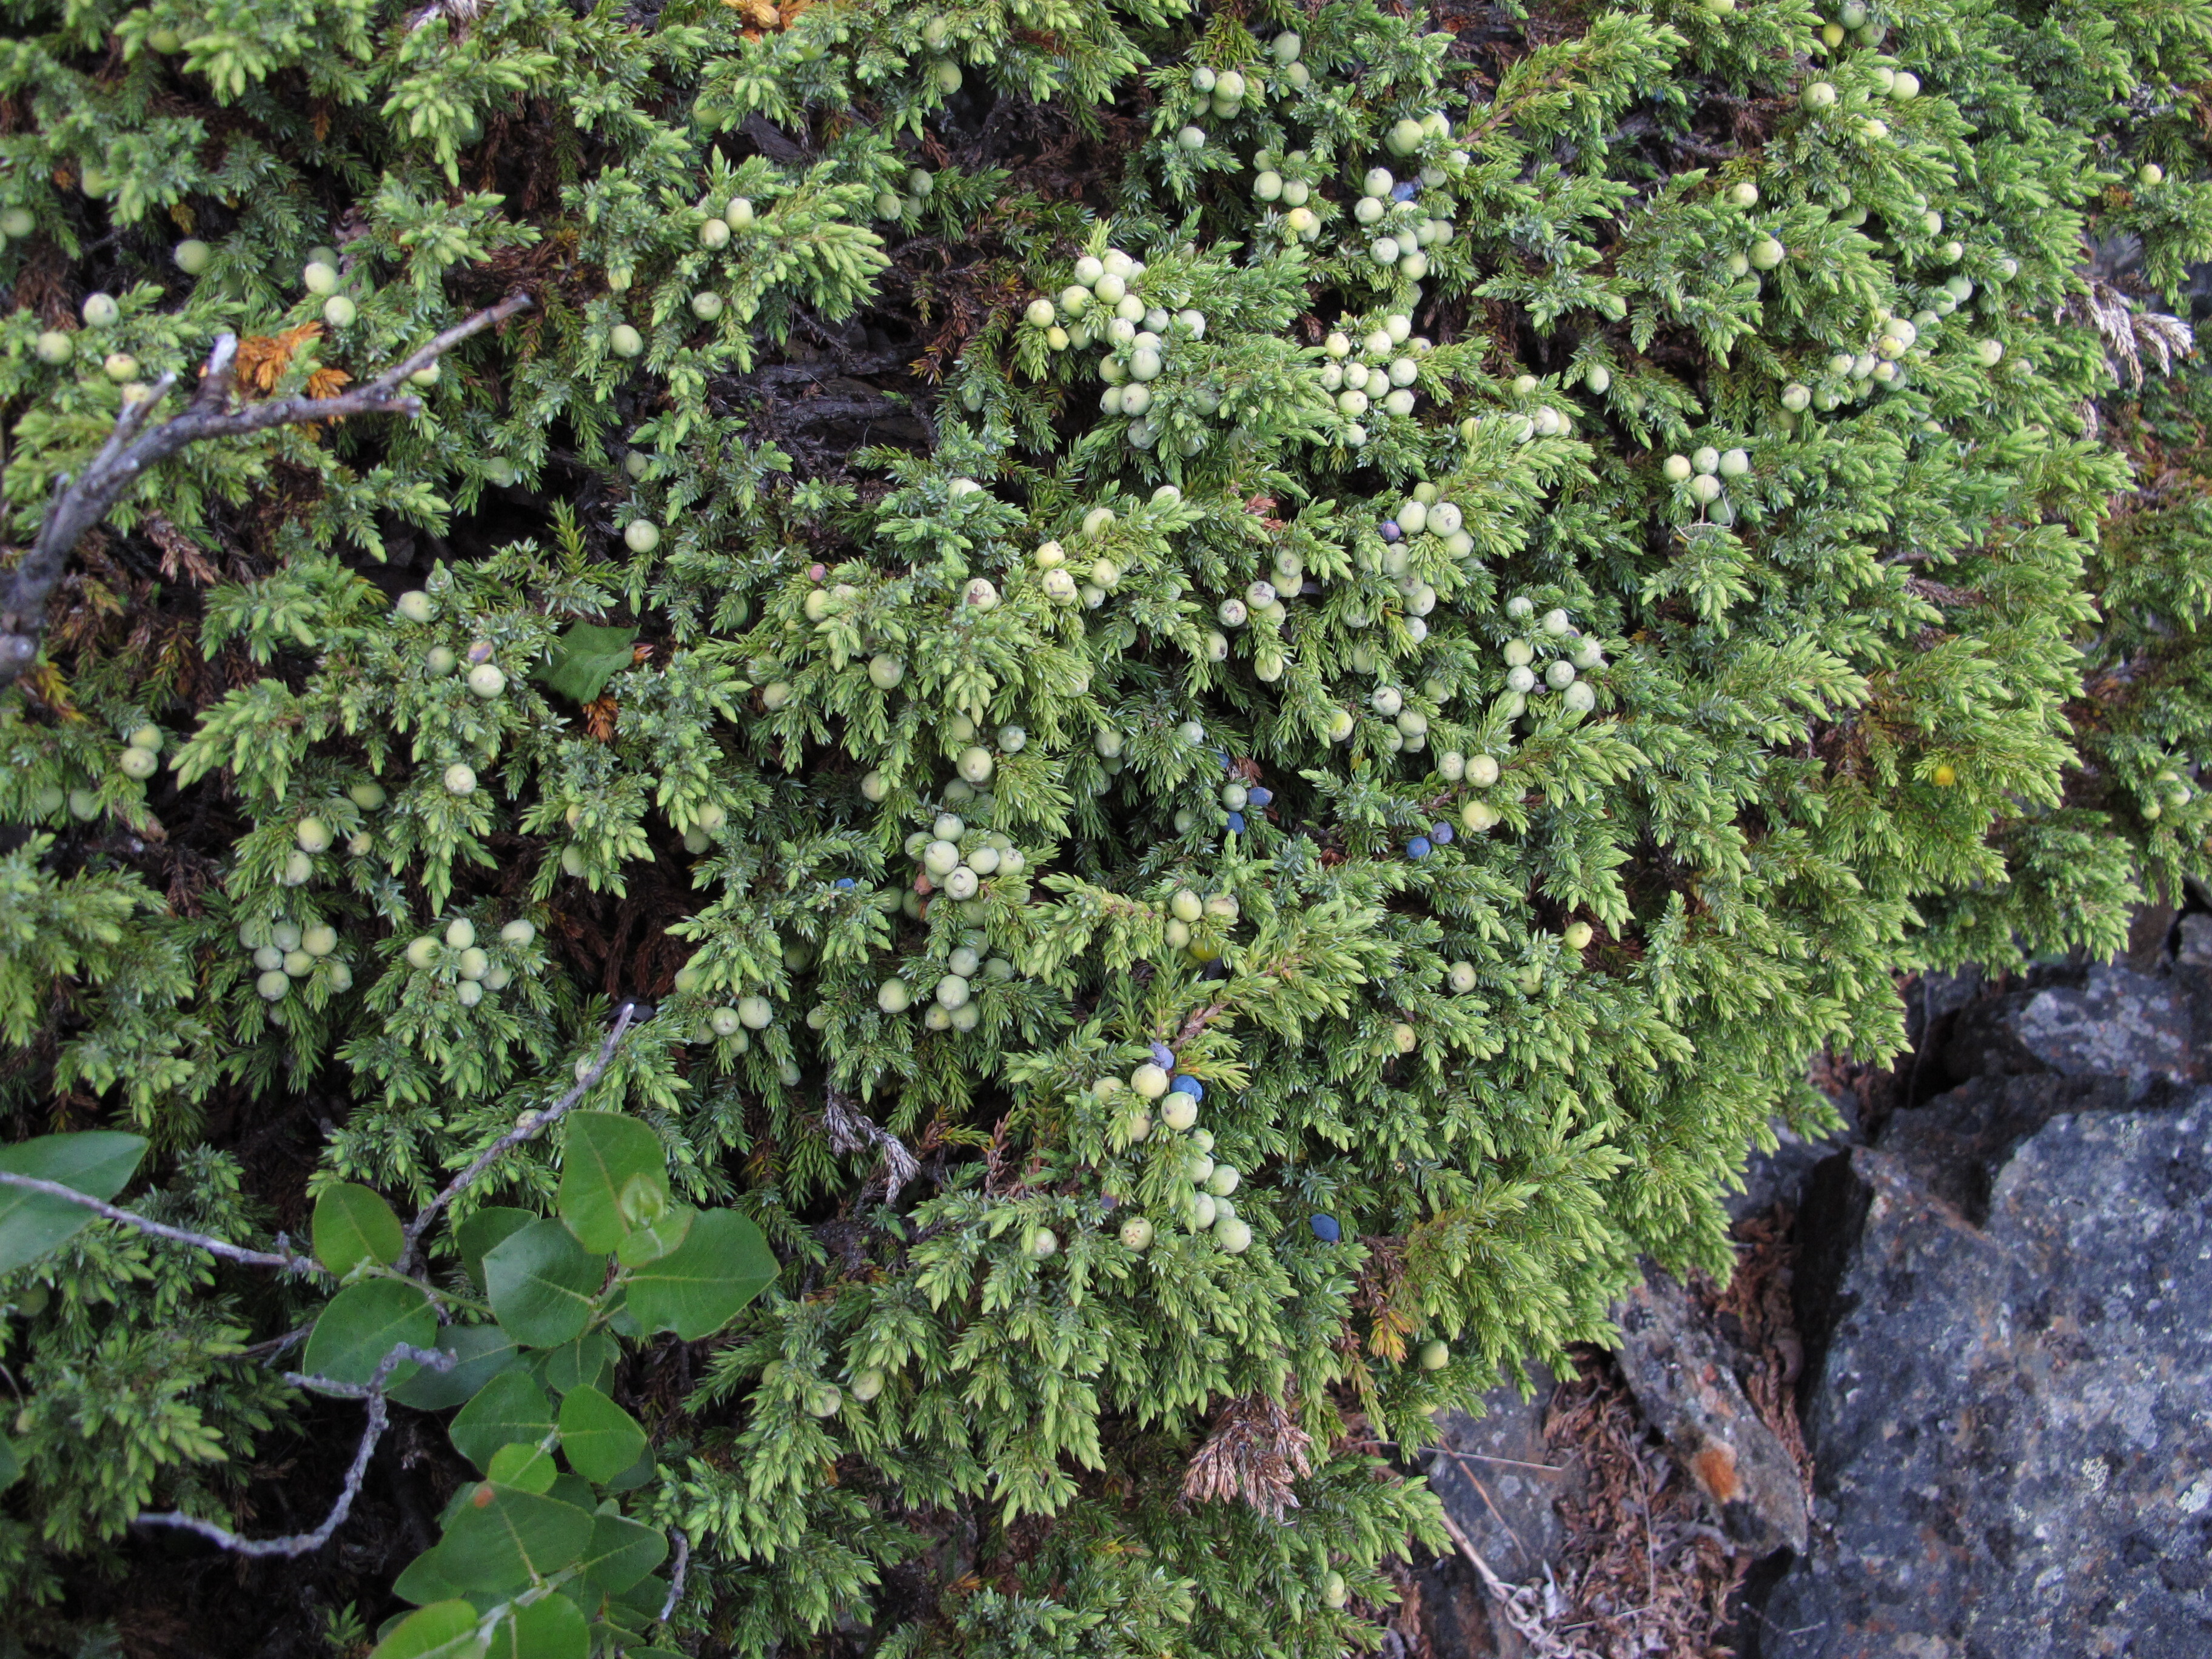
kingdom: Plantae
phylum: Tracheophyta
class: Pinopsida
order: Pinales
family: Cupressaceae
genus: Juniperus
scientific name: Juniperus communis
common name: Common juniper
